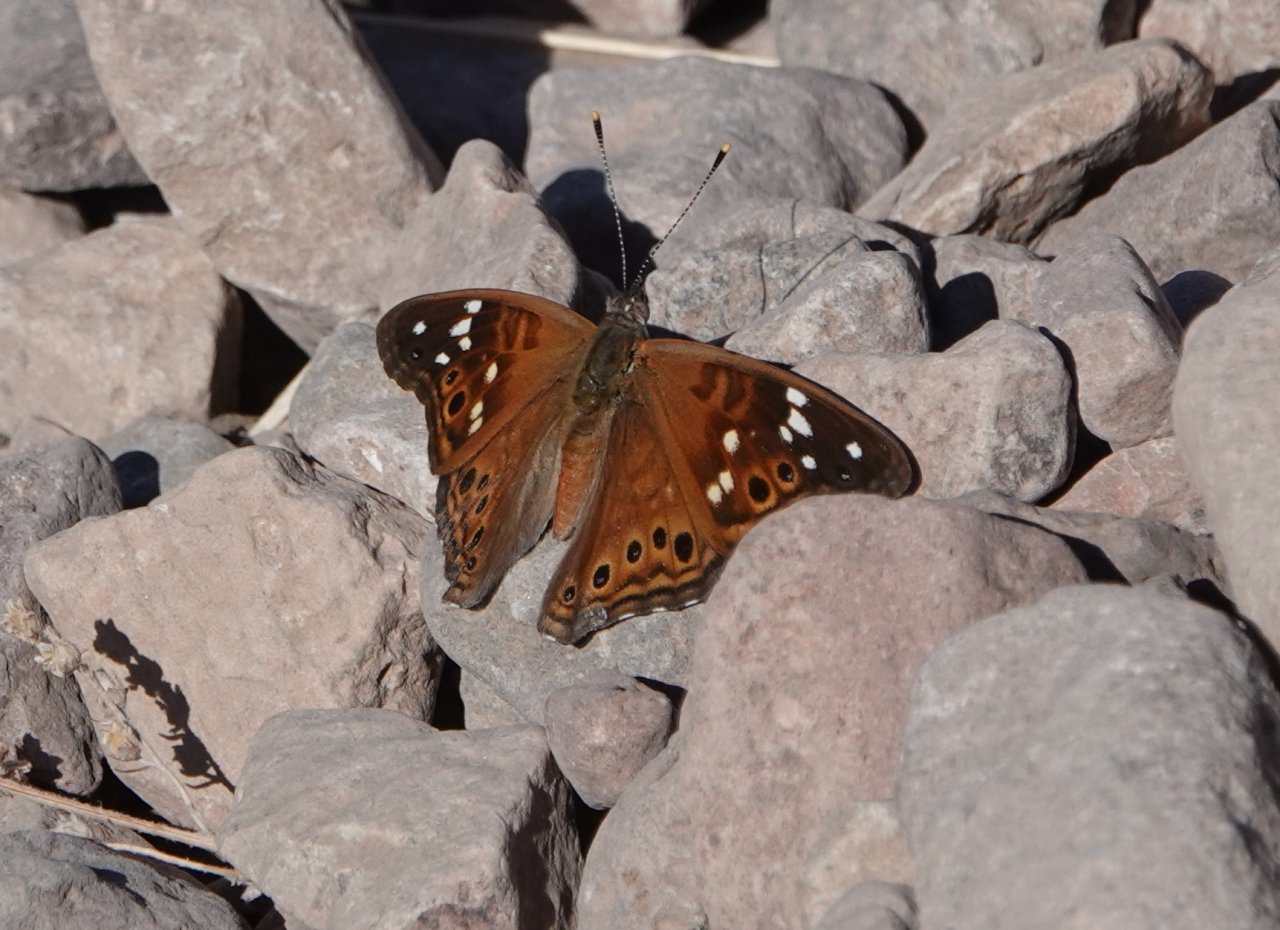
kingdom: Animalia
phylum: Arthropoda
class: Insecta
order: Lepidoptera
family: Nymphalidae
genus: Asterocampa
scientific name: Asterocampa leilia
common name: Empress Leilia
